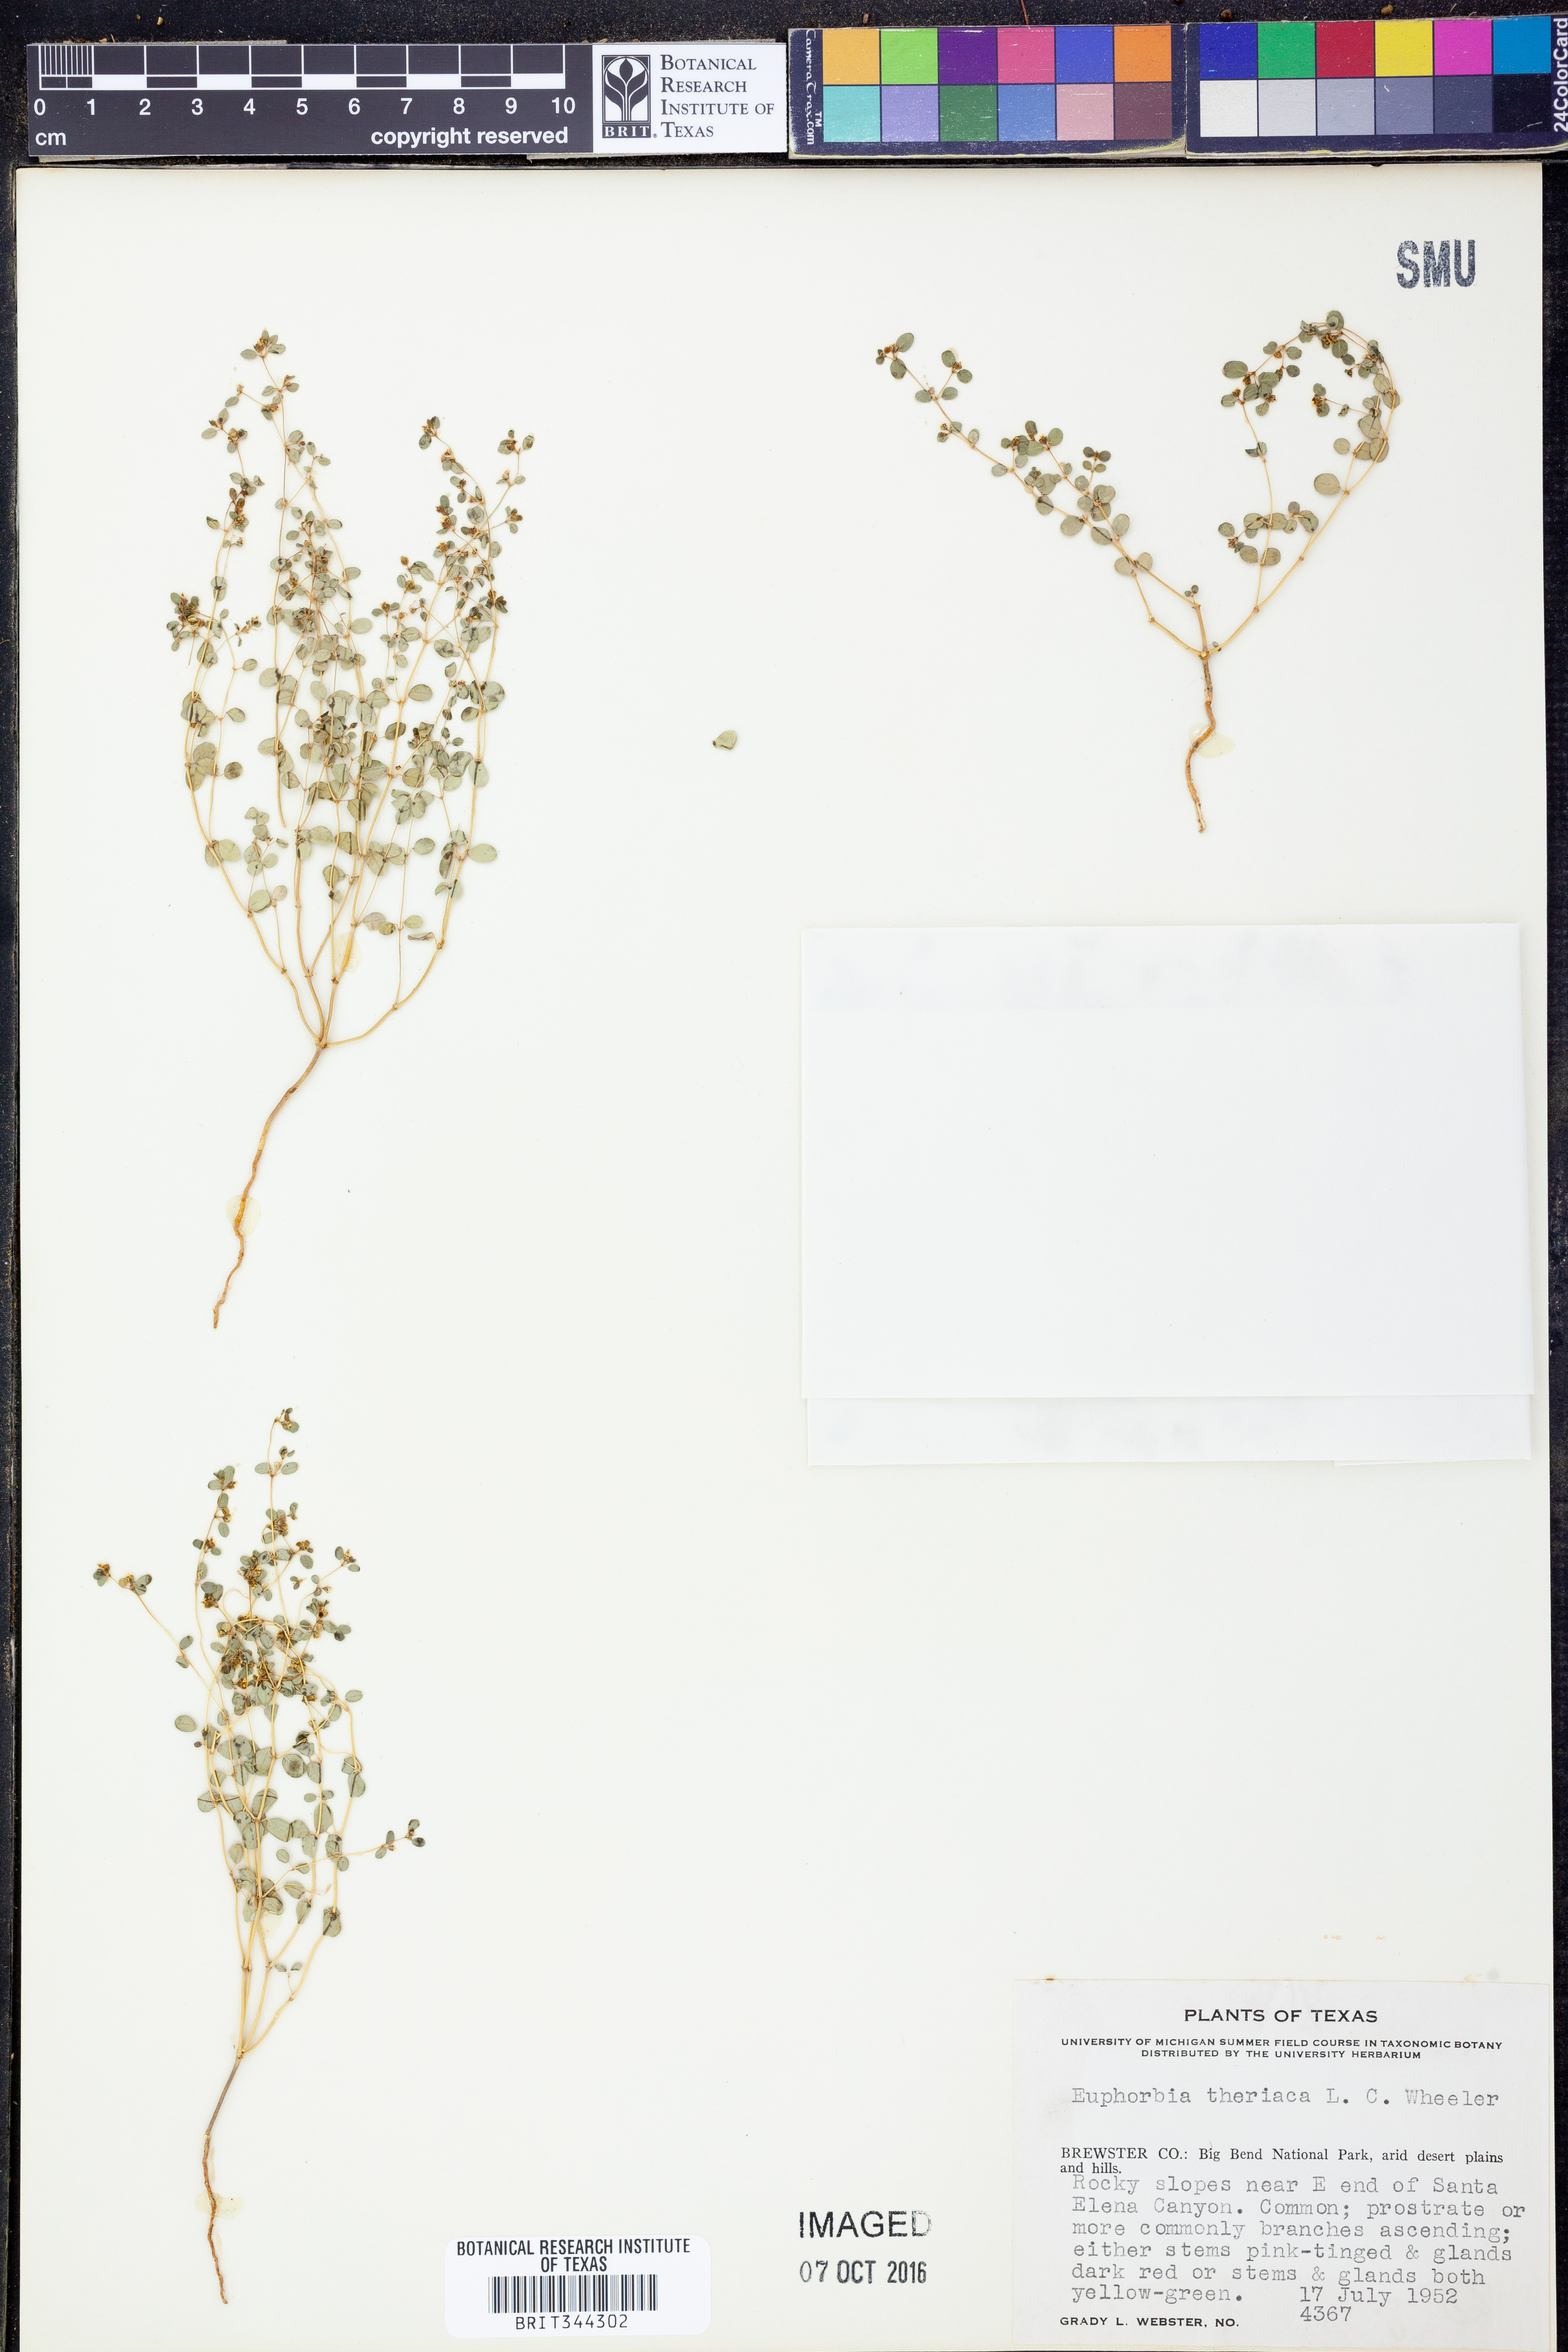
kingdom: Plantae
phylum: Tracheophyta
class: Magnoliopsida
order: Malpighiales
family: Euphorbiaceae
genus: Euphorbia
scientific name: Euphorbia theriaca
